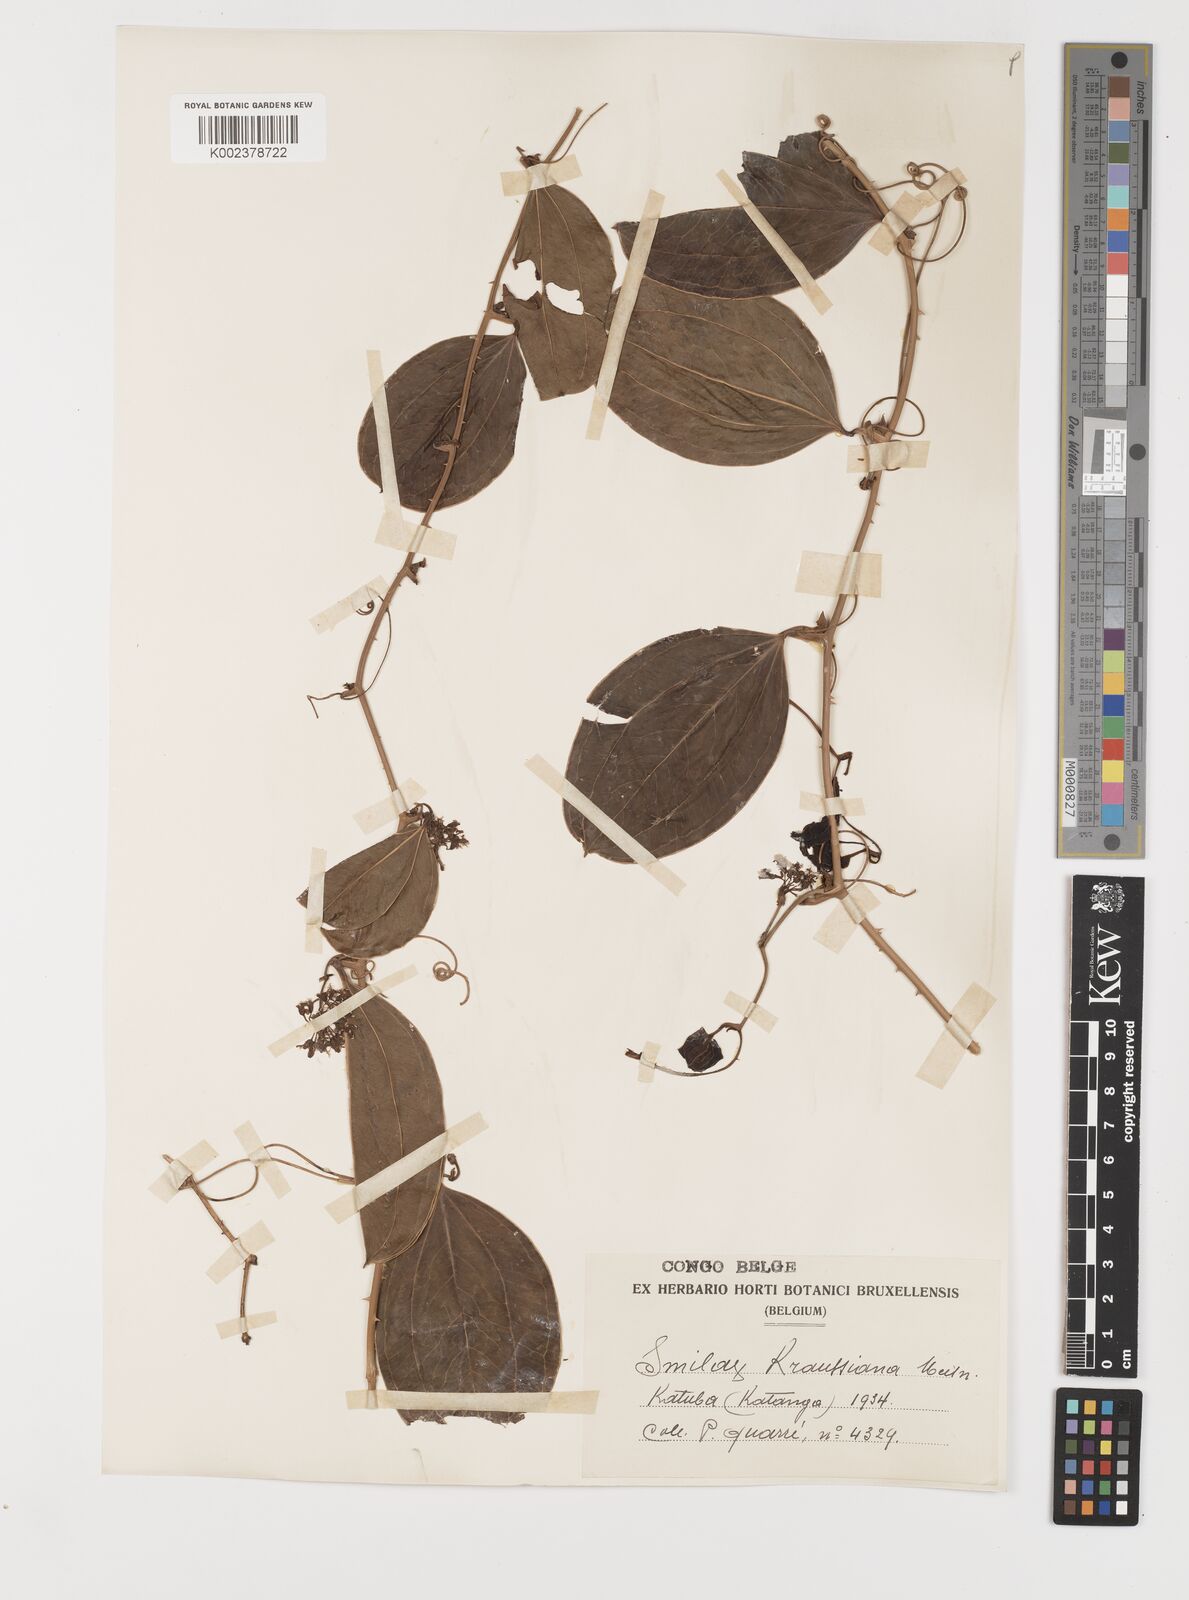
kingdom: Plantae
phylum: Tracheophyta
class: Liliopsida
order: Liliales
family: Smilacaceae
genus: Smilax
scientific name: Smilax anceps
